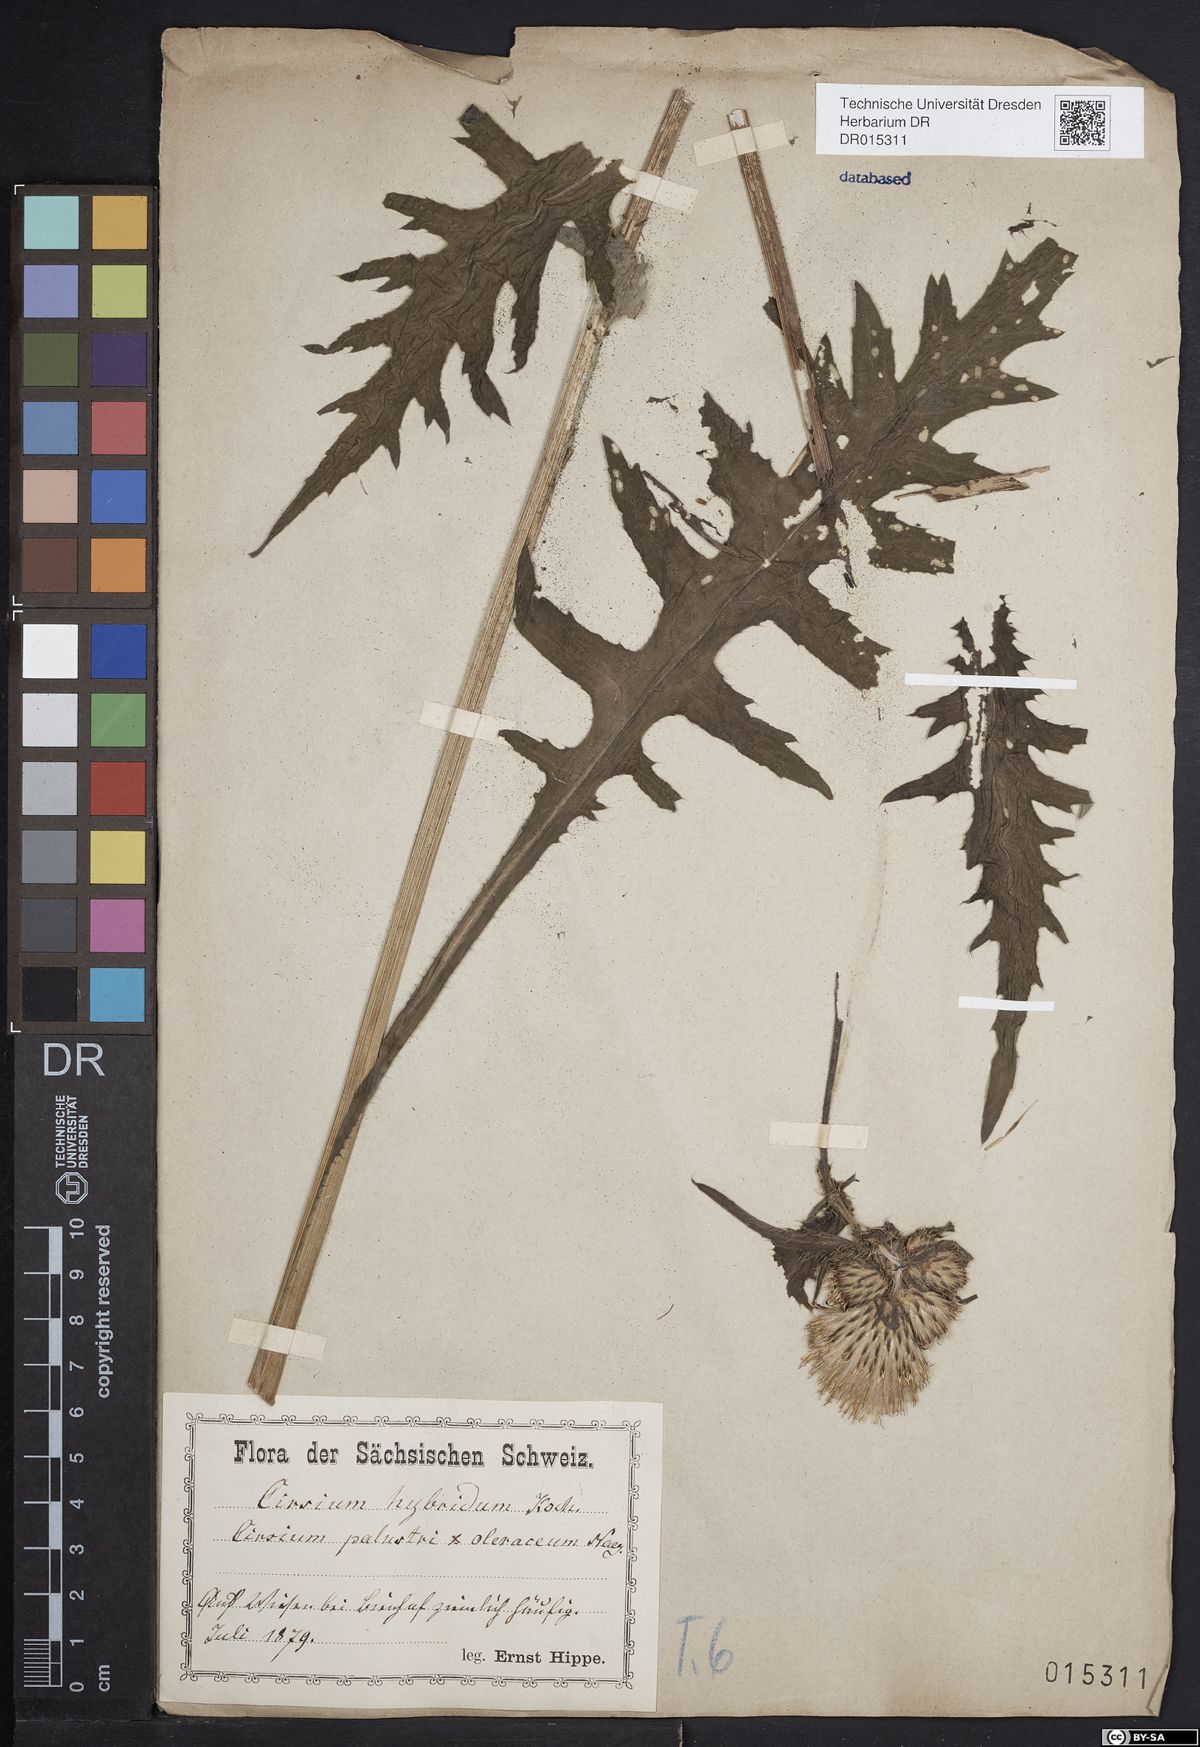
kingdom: Plantae
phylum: Tracheophyta
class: Magnoliopsida
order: Asterales
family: Asteraceae
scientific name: Asteraceae
